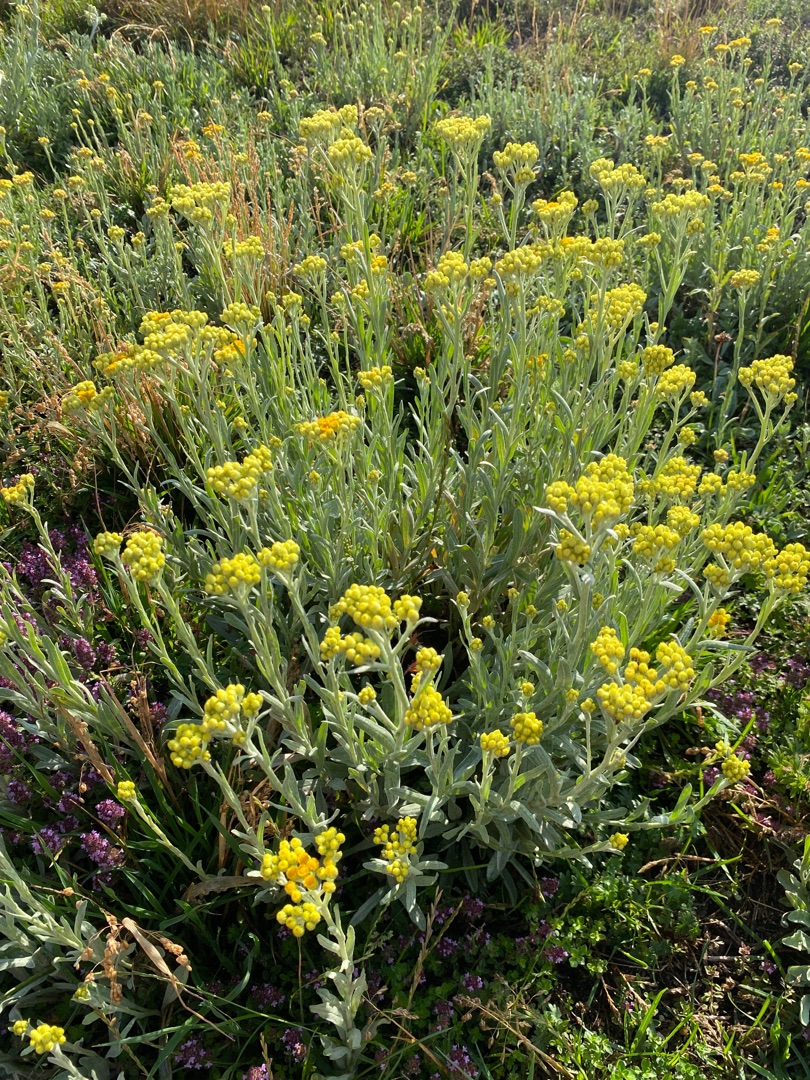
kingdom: Plantae
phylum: Tracheophyta
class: Magnoliopsida
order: Asterales
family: Asteraceae
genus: Helichrysum
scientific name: Helichrysum arenarium
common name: Gul evighedsblomst
